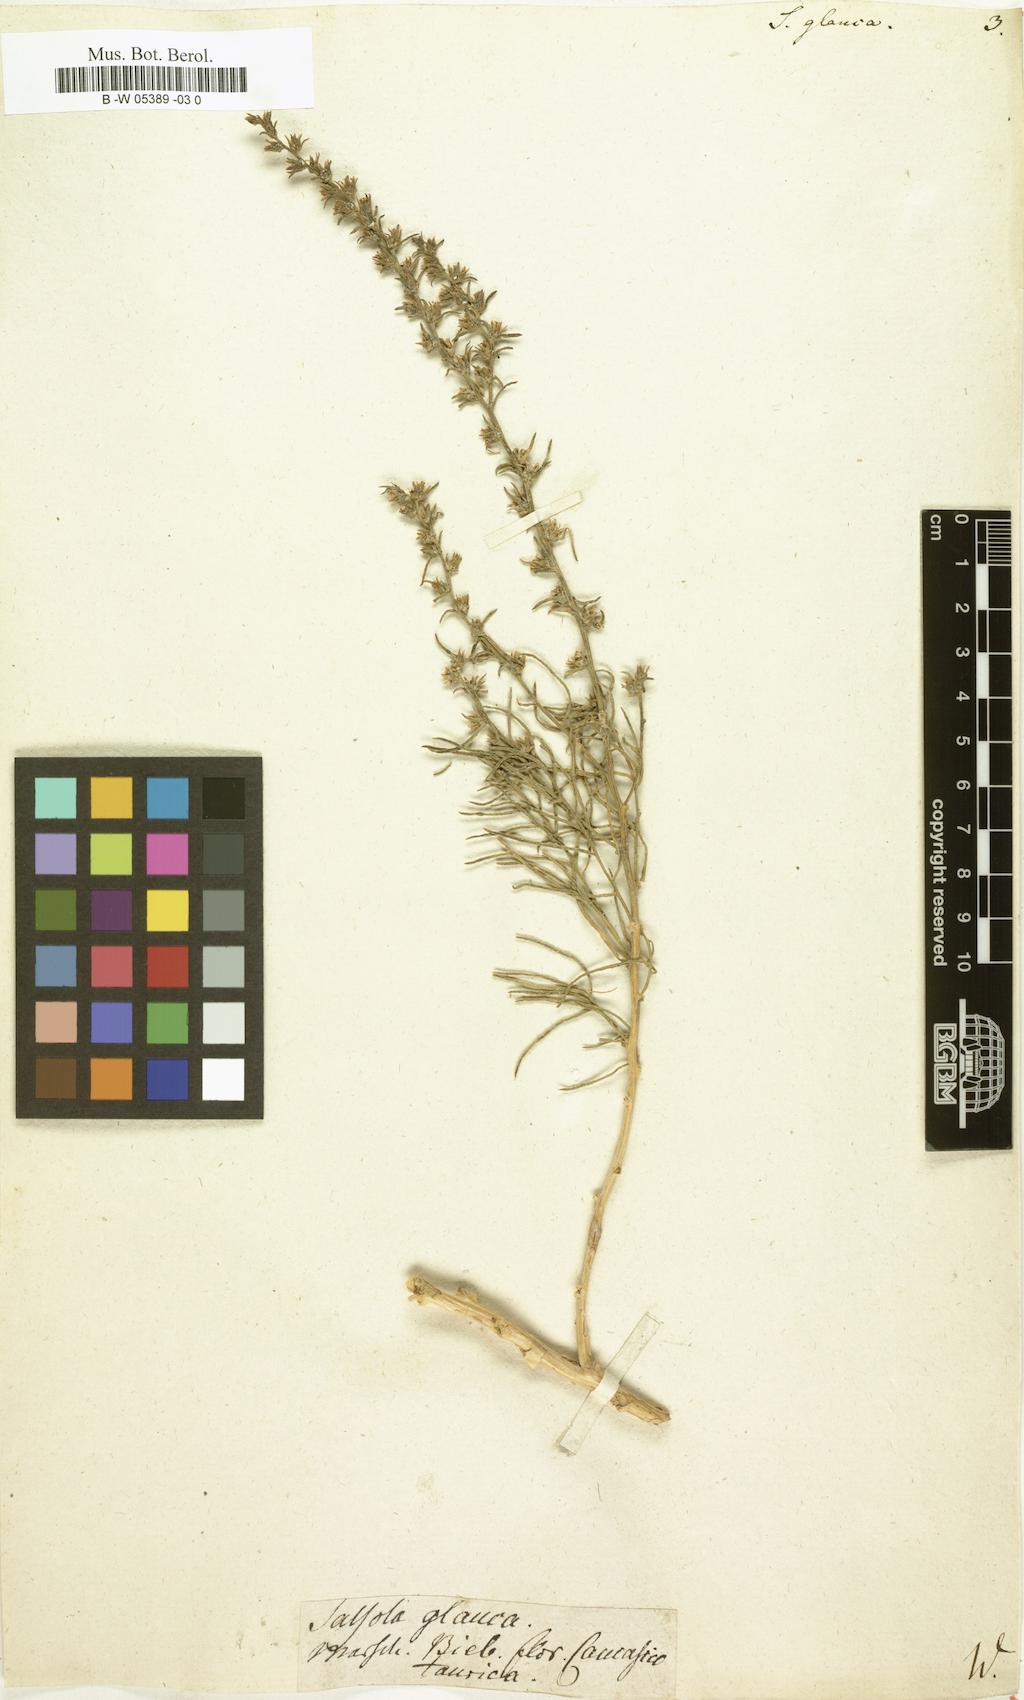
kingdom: Plantae
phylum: Tracheophyta
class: Magnoliopsida
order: Caryophyllales
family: Amaranthaceae
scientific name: Amaranthaceae
